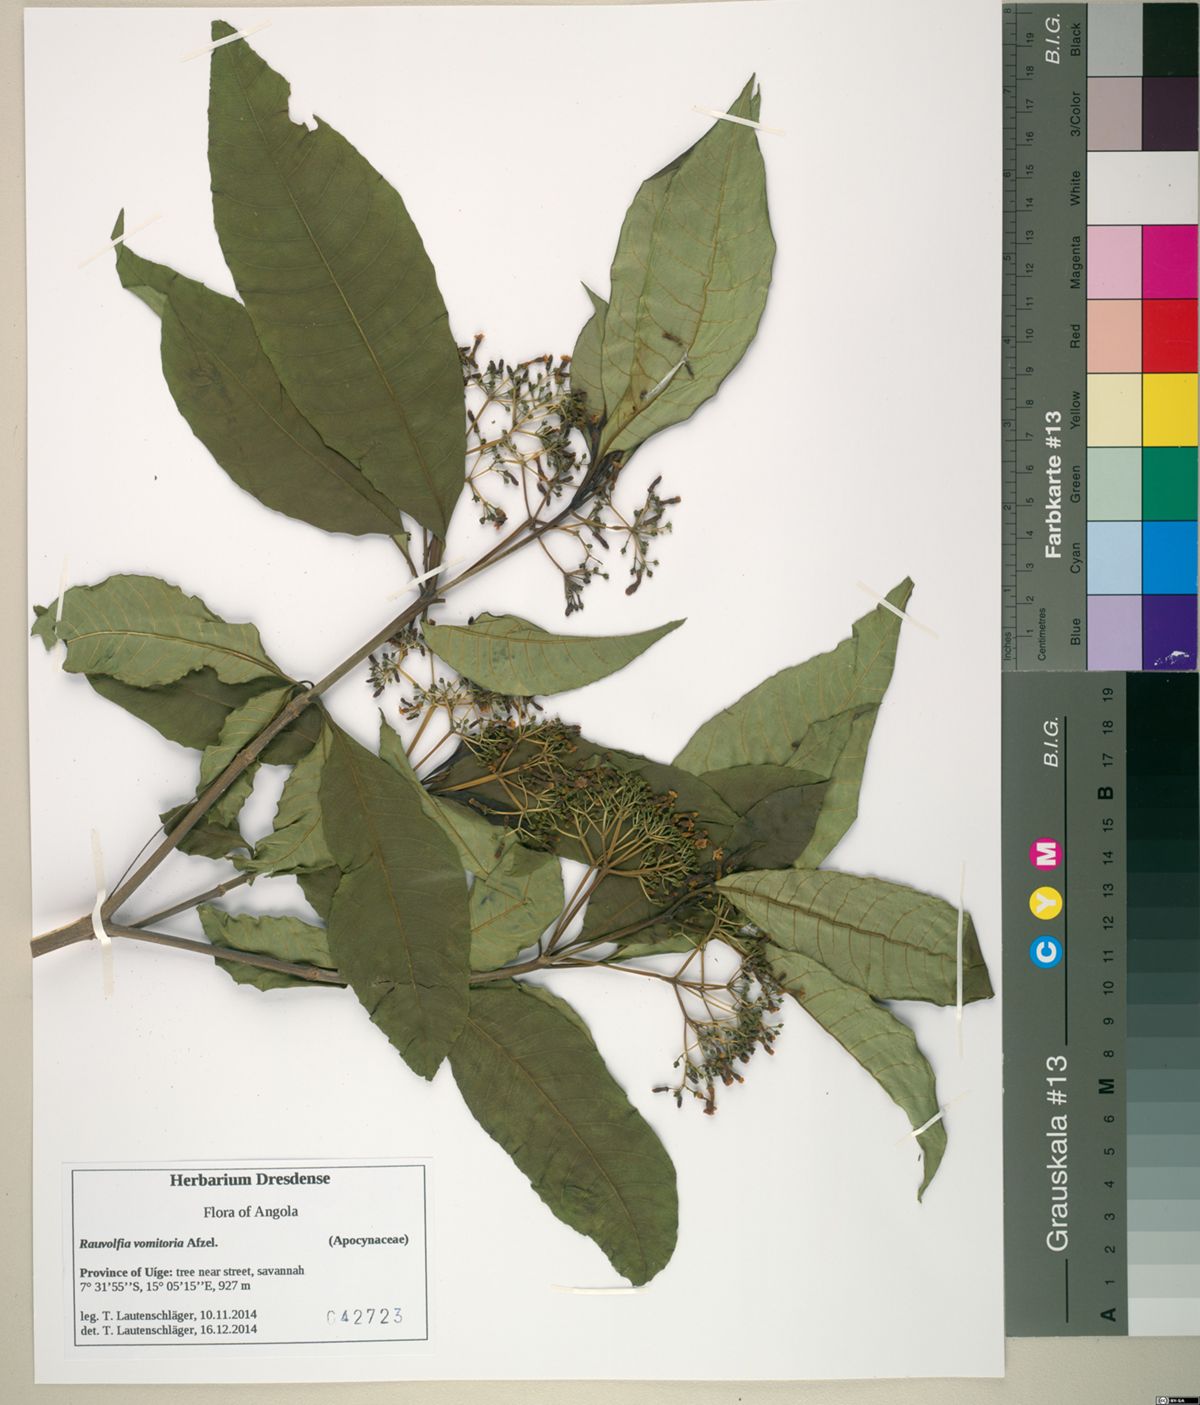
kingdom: Plantae
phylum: Tracheophyta
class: Magnoliopsida
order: Gentianales
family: Apocynaceae
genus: Rauvolfia
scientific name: Rauvolfia vomitoria
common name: Poison devil's-pepper
